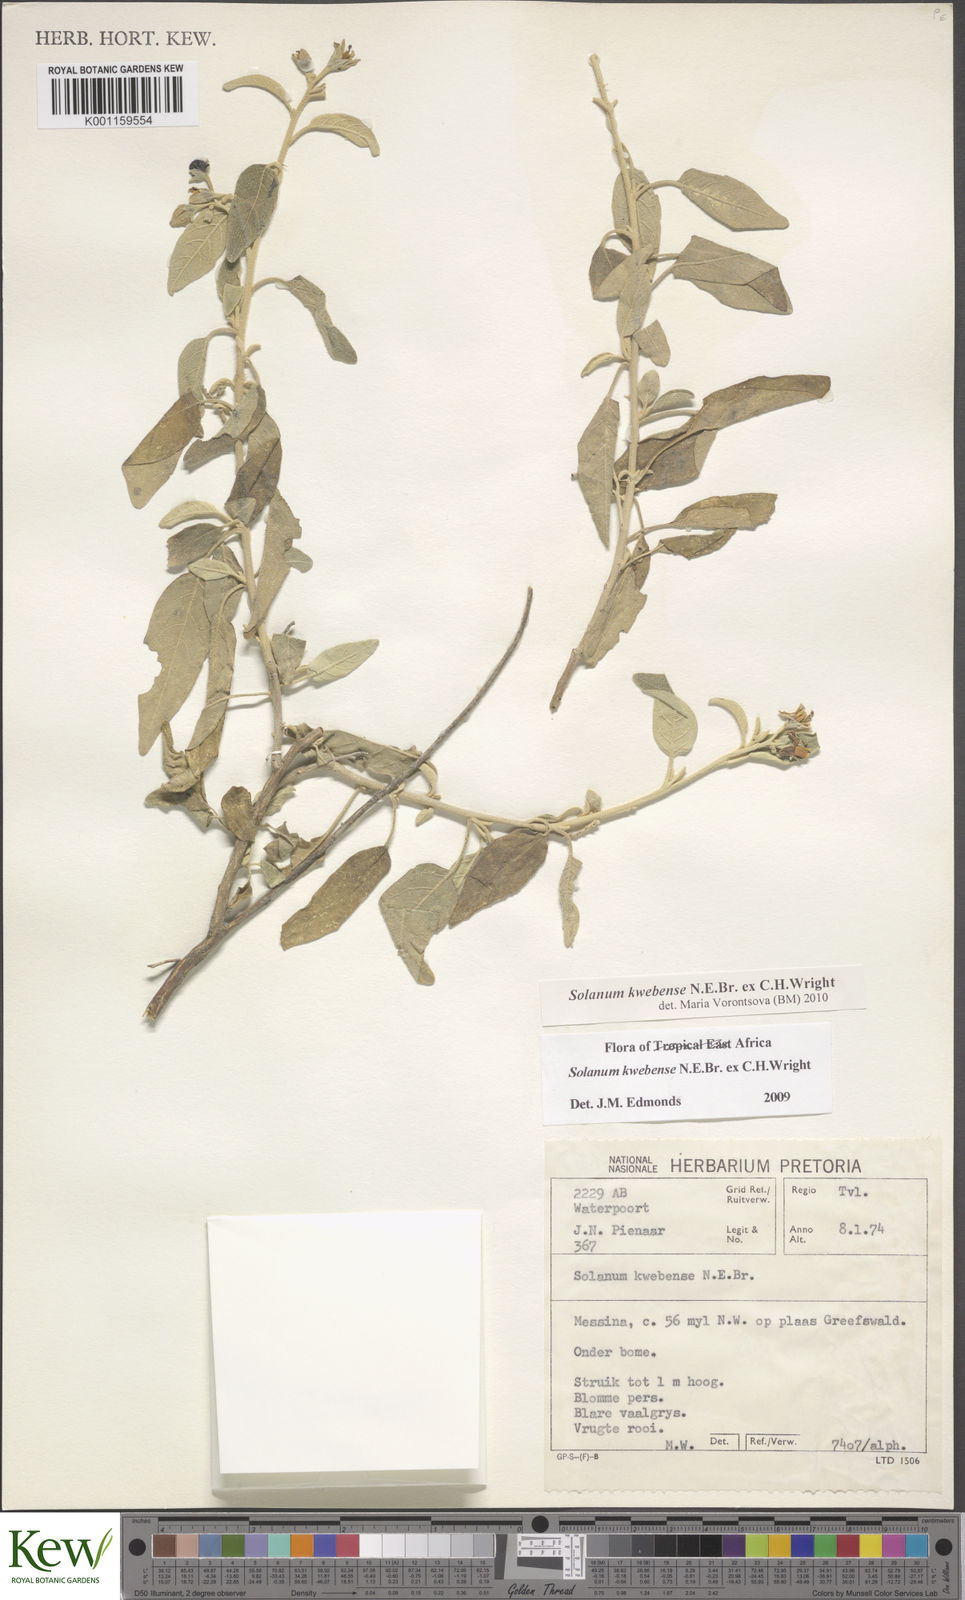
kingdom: Plantae
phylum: Tracheophyta
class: Magnoliopsida
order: Solanales
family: Solanaceae
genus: Solanum
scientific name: Solanum tettense
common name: Mozambique bitter apple
